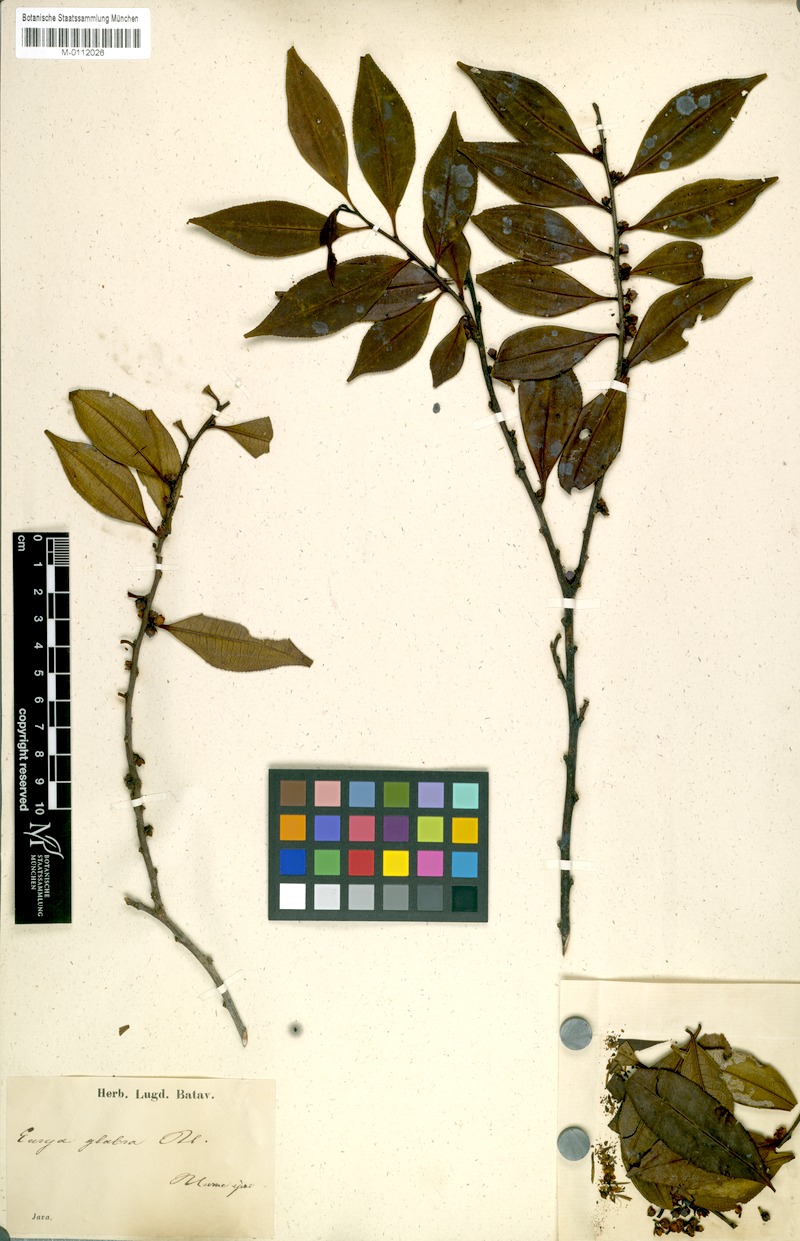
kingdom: Plantae
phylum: Tracheophyta
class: Magnoliopsida
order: Ericales
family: Pentaphylacaceae
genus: Eurya
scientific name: Eurya glabra
